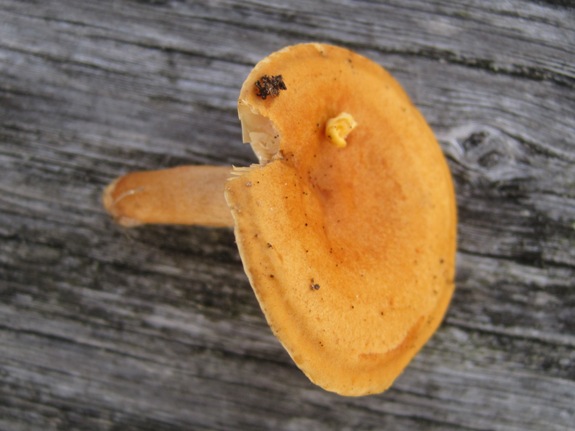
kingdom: Fungi
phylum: Basidiomycota
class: Agaricomycetes
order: Russulales
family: Russulaceae
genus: Lactarius
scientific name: Lactarius aurantiacus
